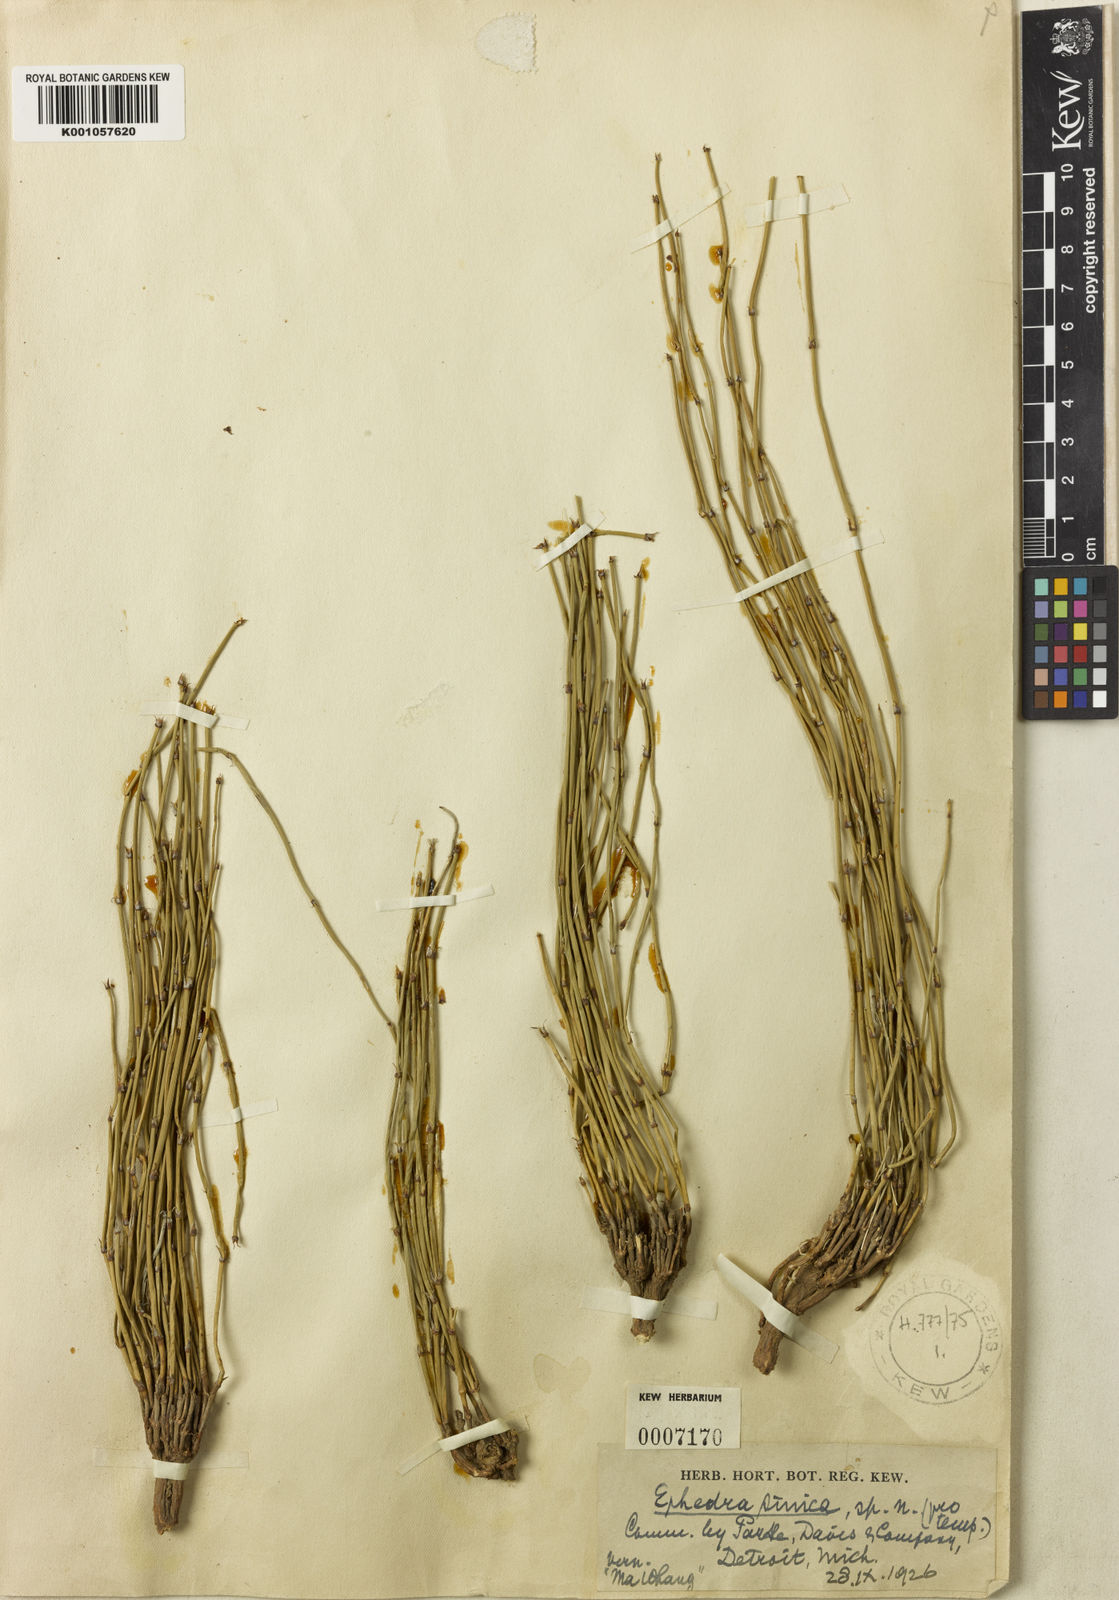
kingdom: Plantae
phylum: Tracheophyta
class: Gnetopsida
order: Ephedrales
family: Ephedraceae
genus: Ephedra
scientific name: Ephedra sinica
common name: Chinese ephedra
